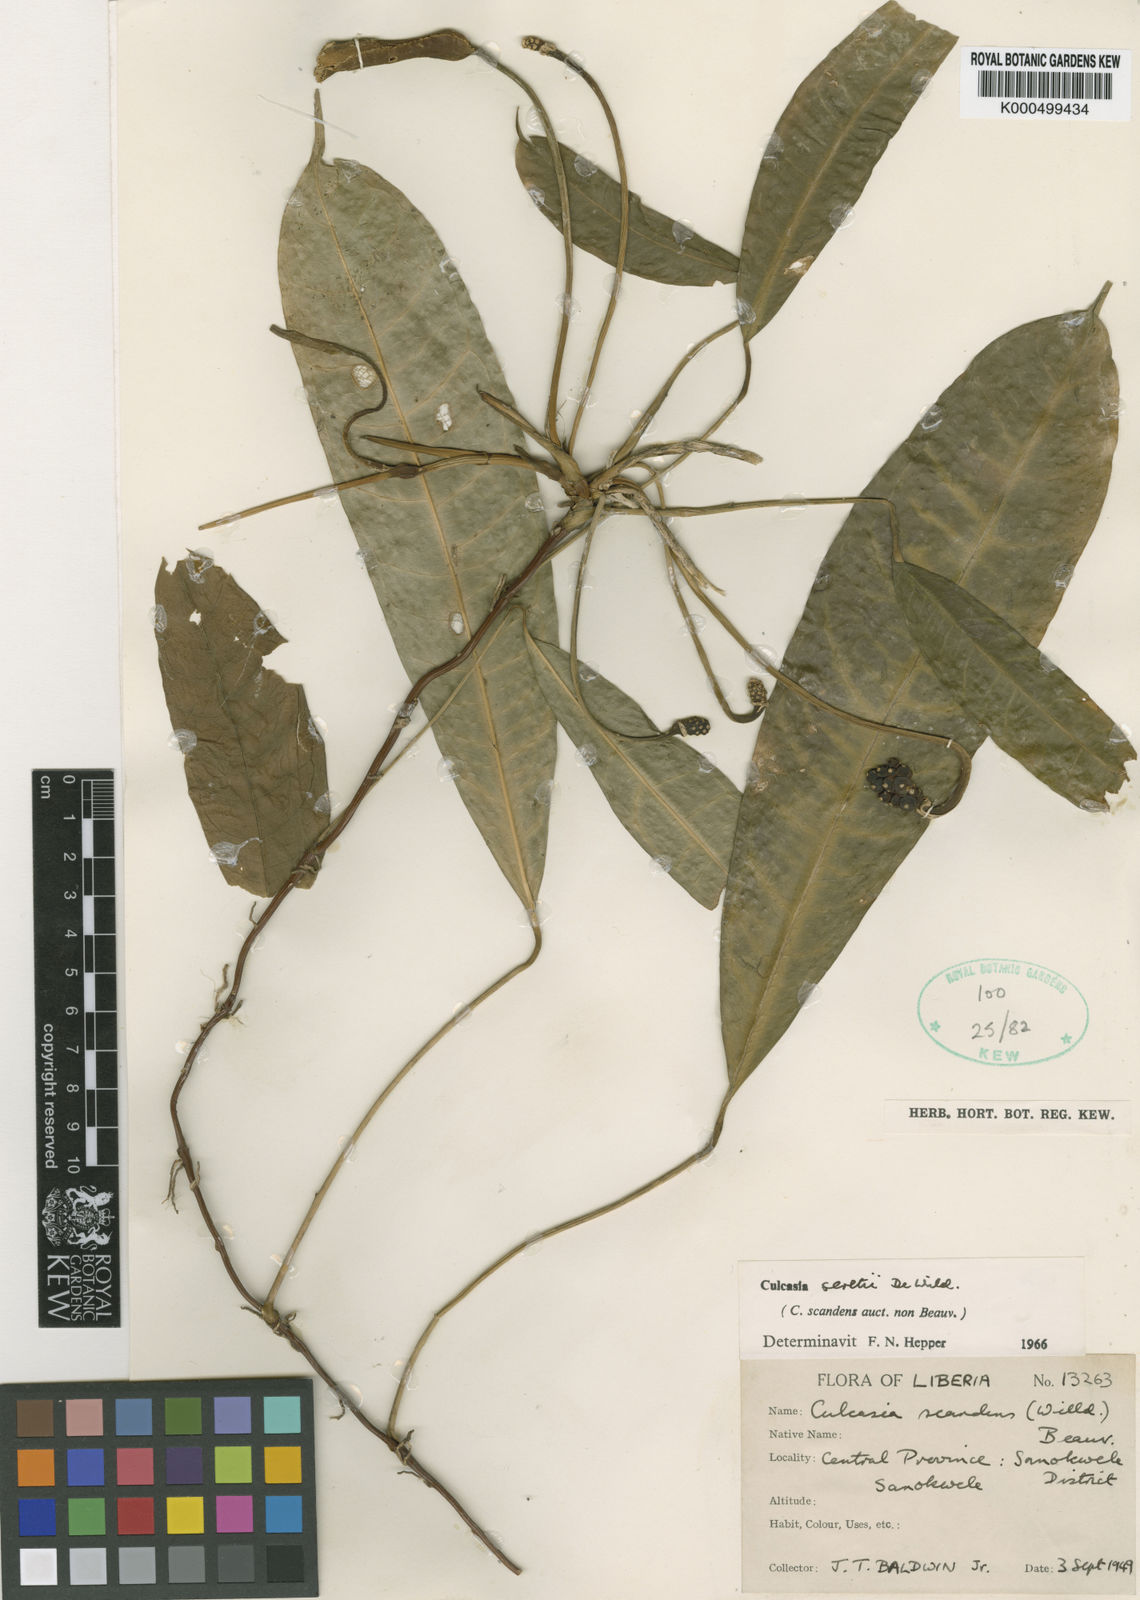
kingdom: Plantae
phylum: Tracheophyta
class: Liliopsida
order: Alismatales
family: Araceae
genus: Culcasia
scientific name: Culcasia seretii
